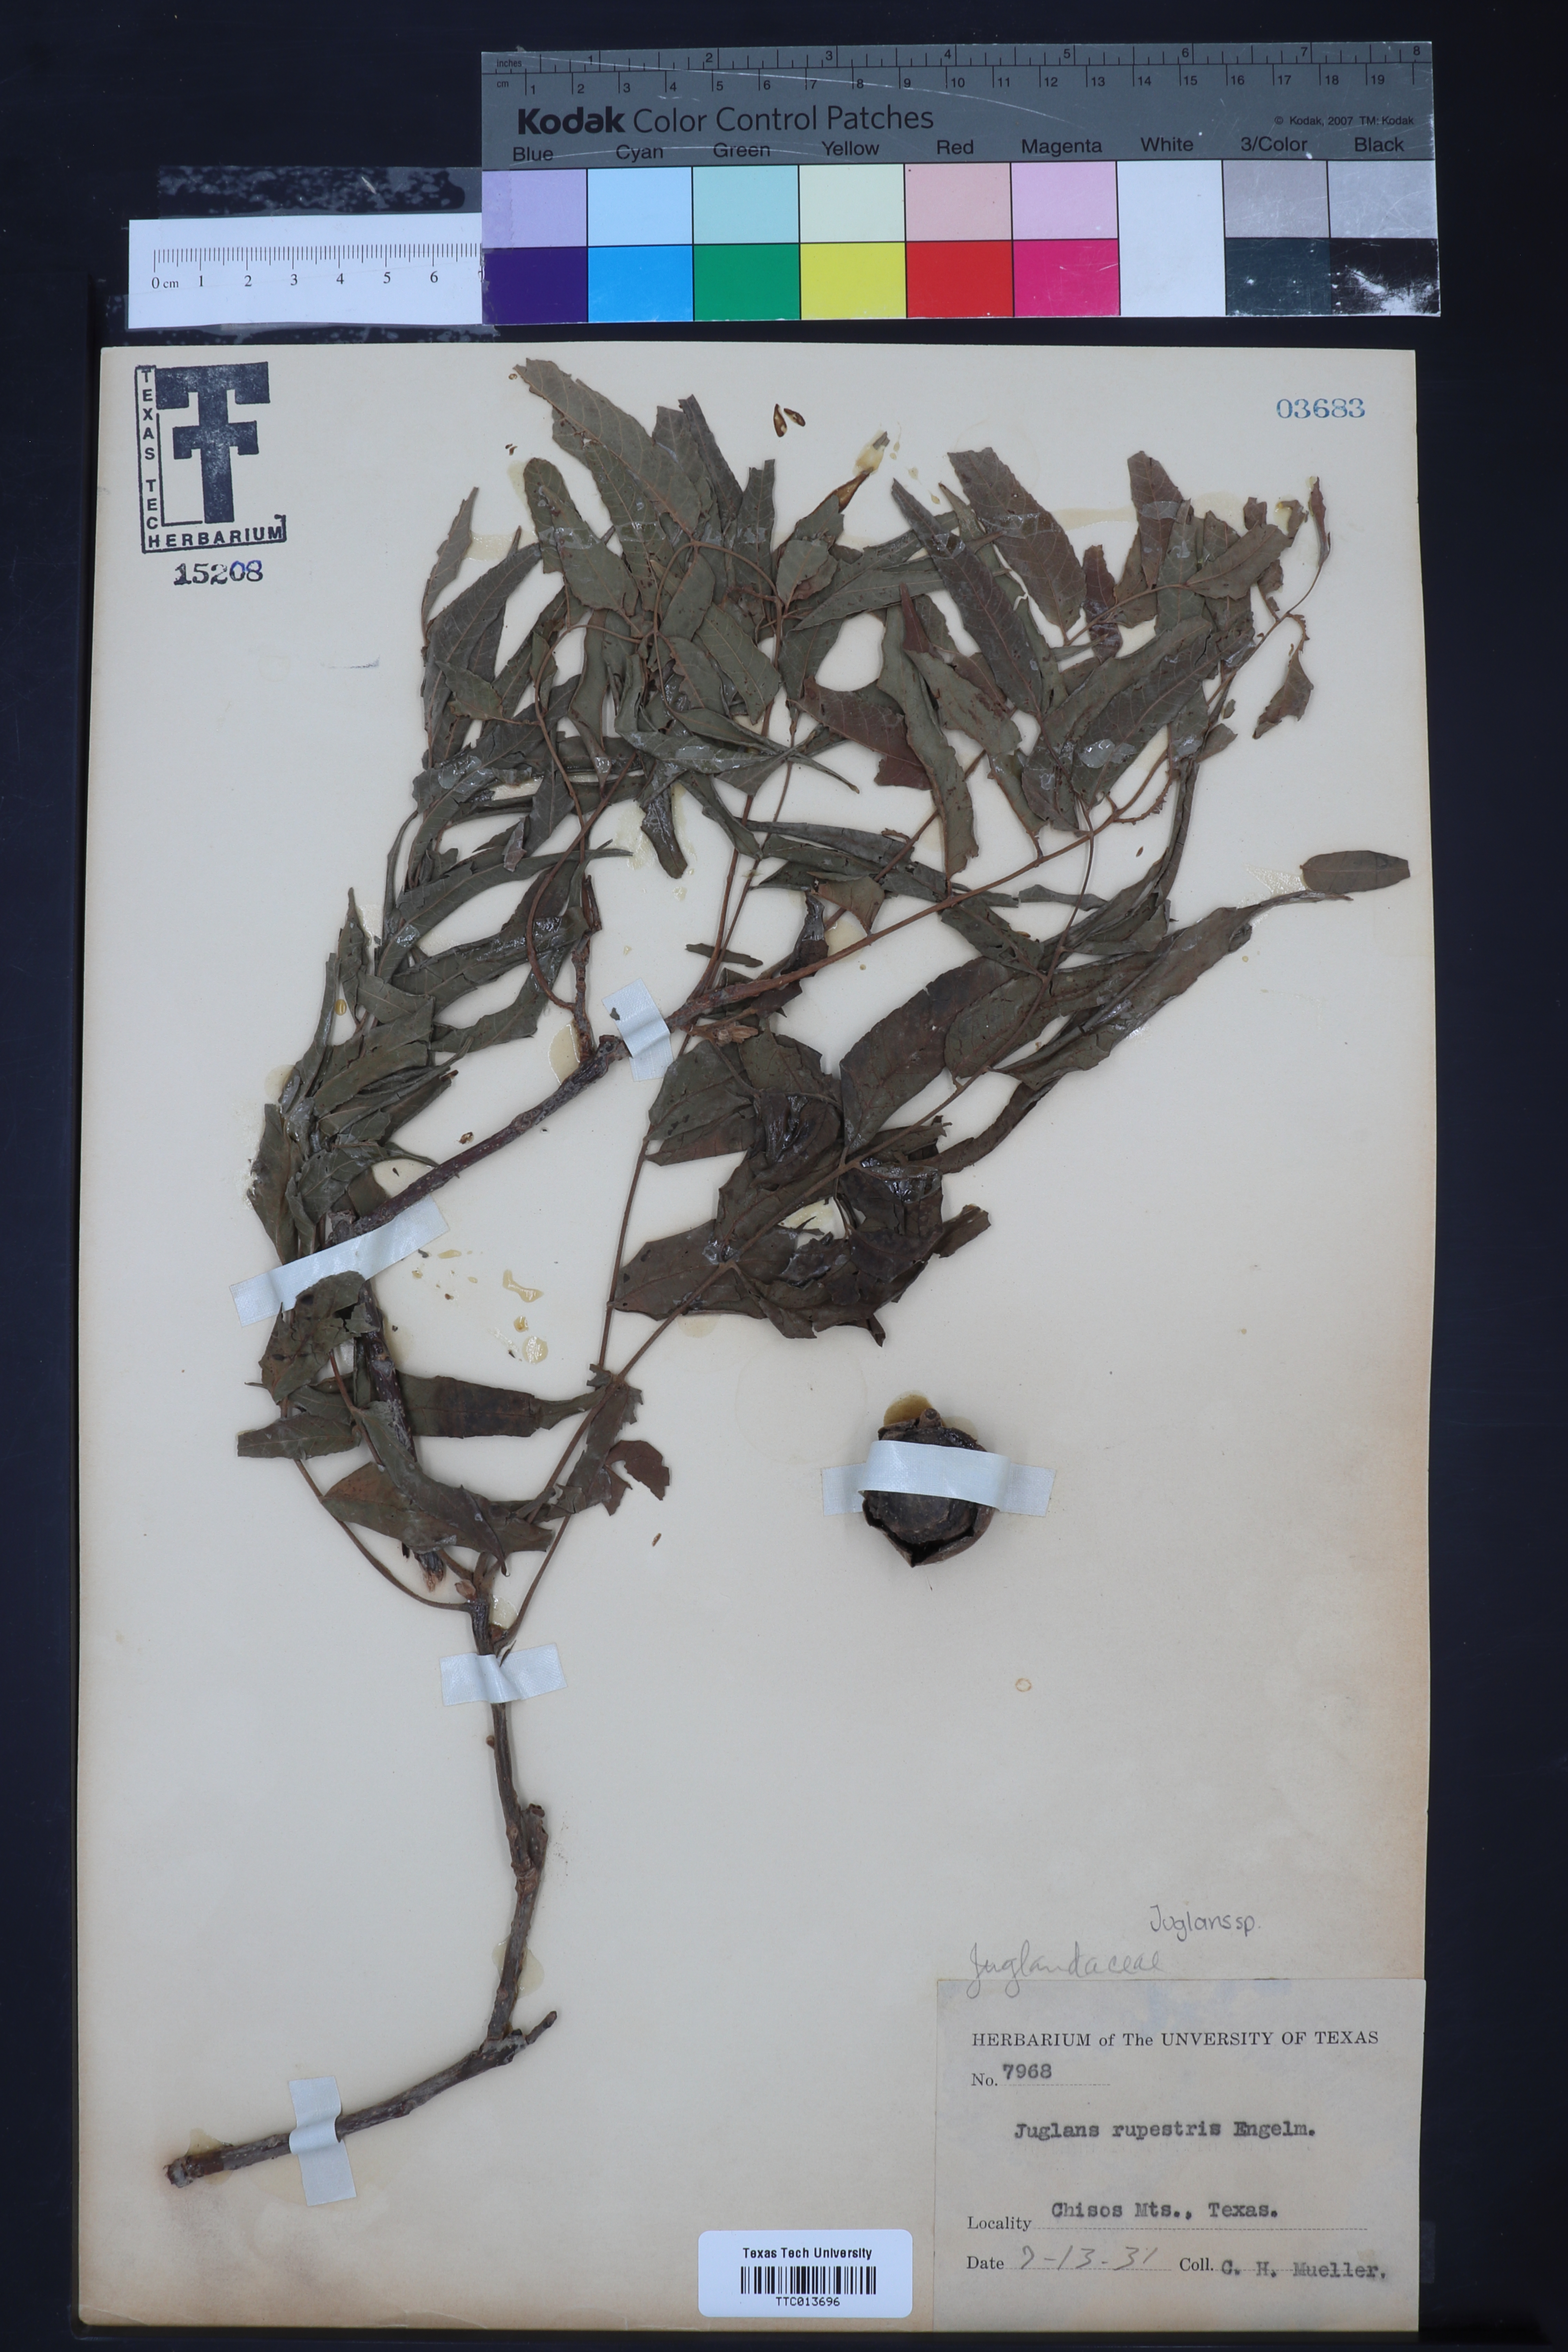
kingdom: Plantae
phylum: Tracheophyta
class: Magnoliopsida
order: Fagales
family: Juglandaceae
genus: Juglans
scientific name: Juglans microcarpa
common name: Texas walnut
